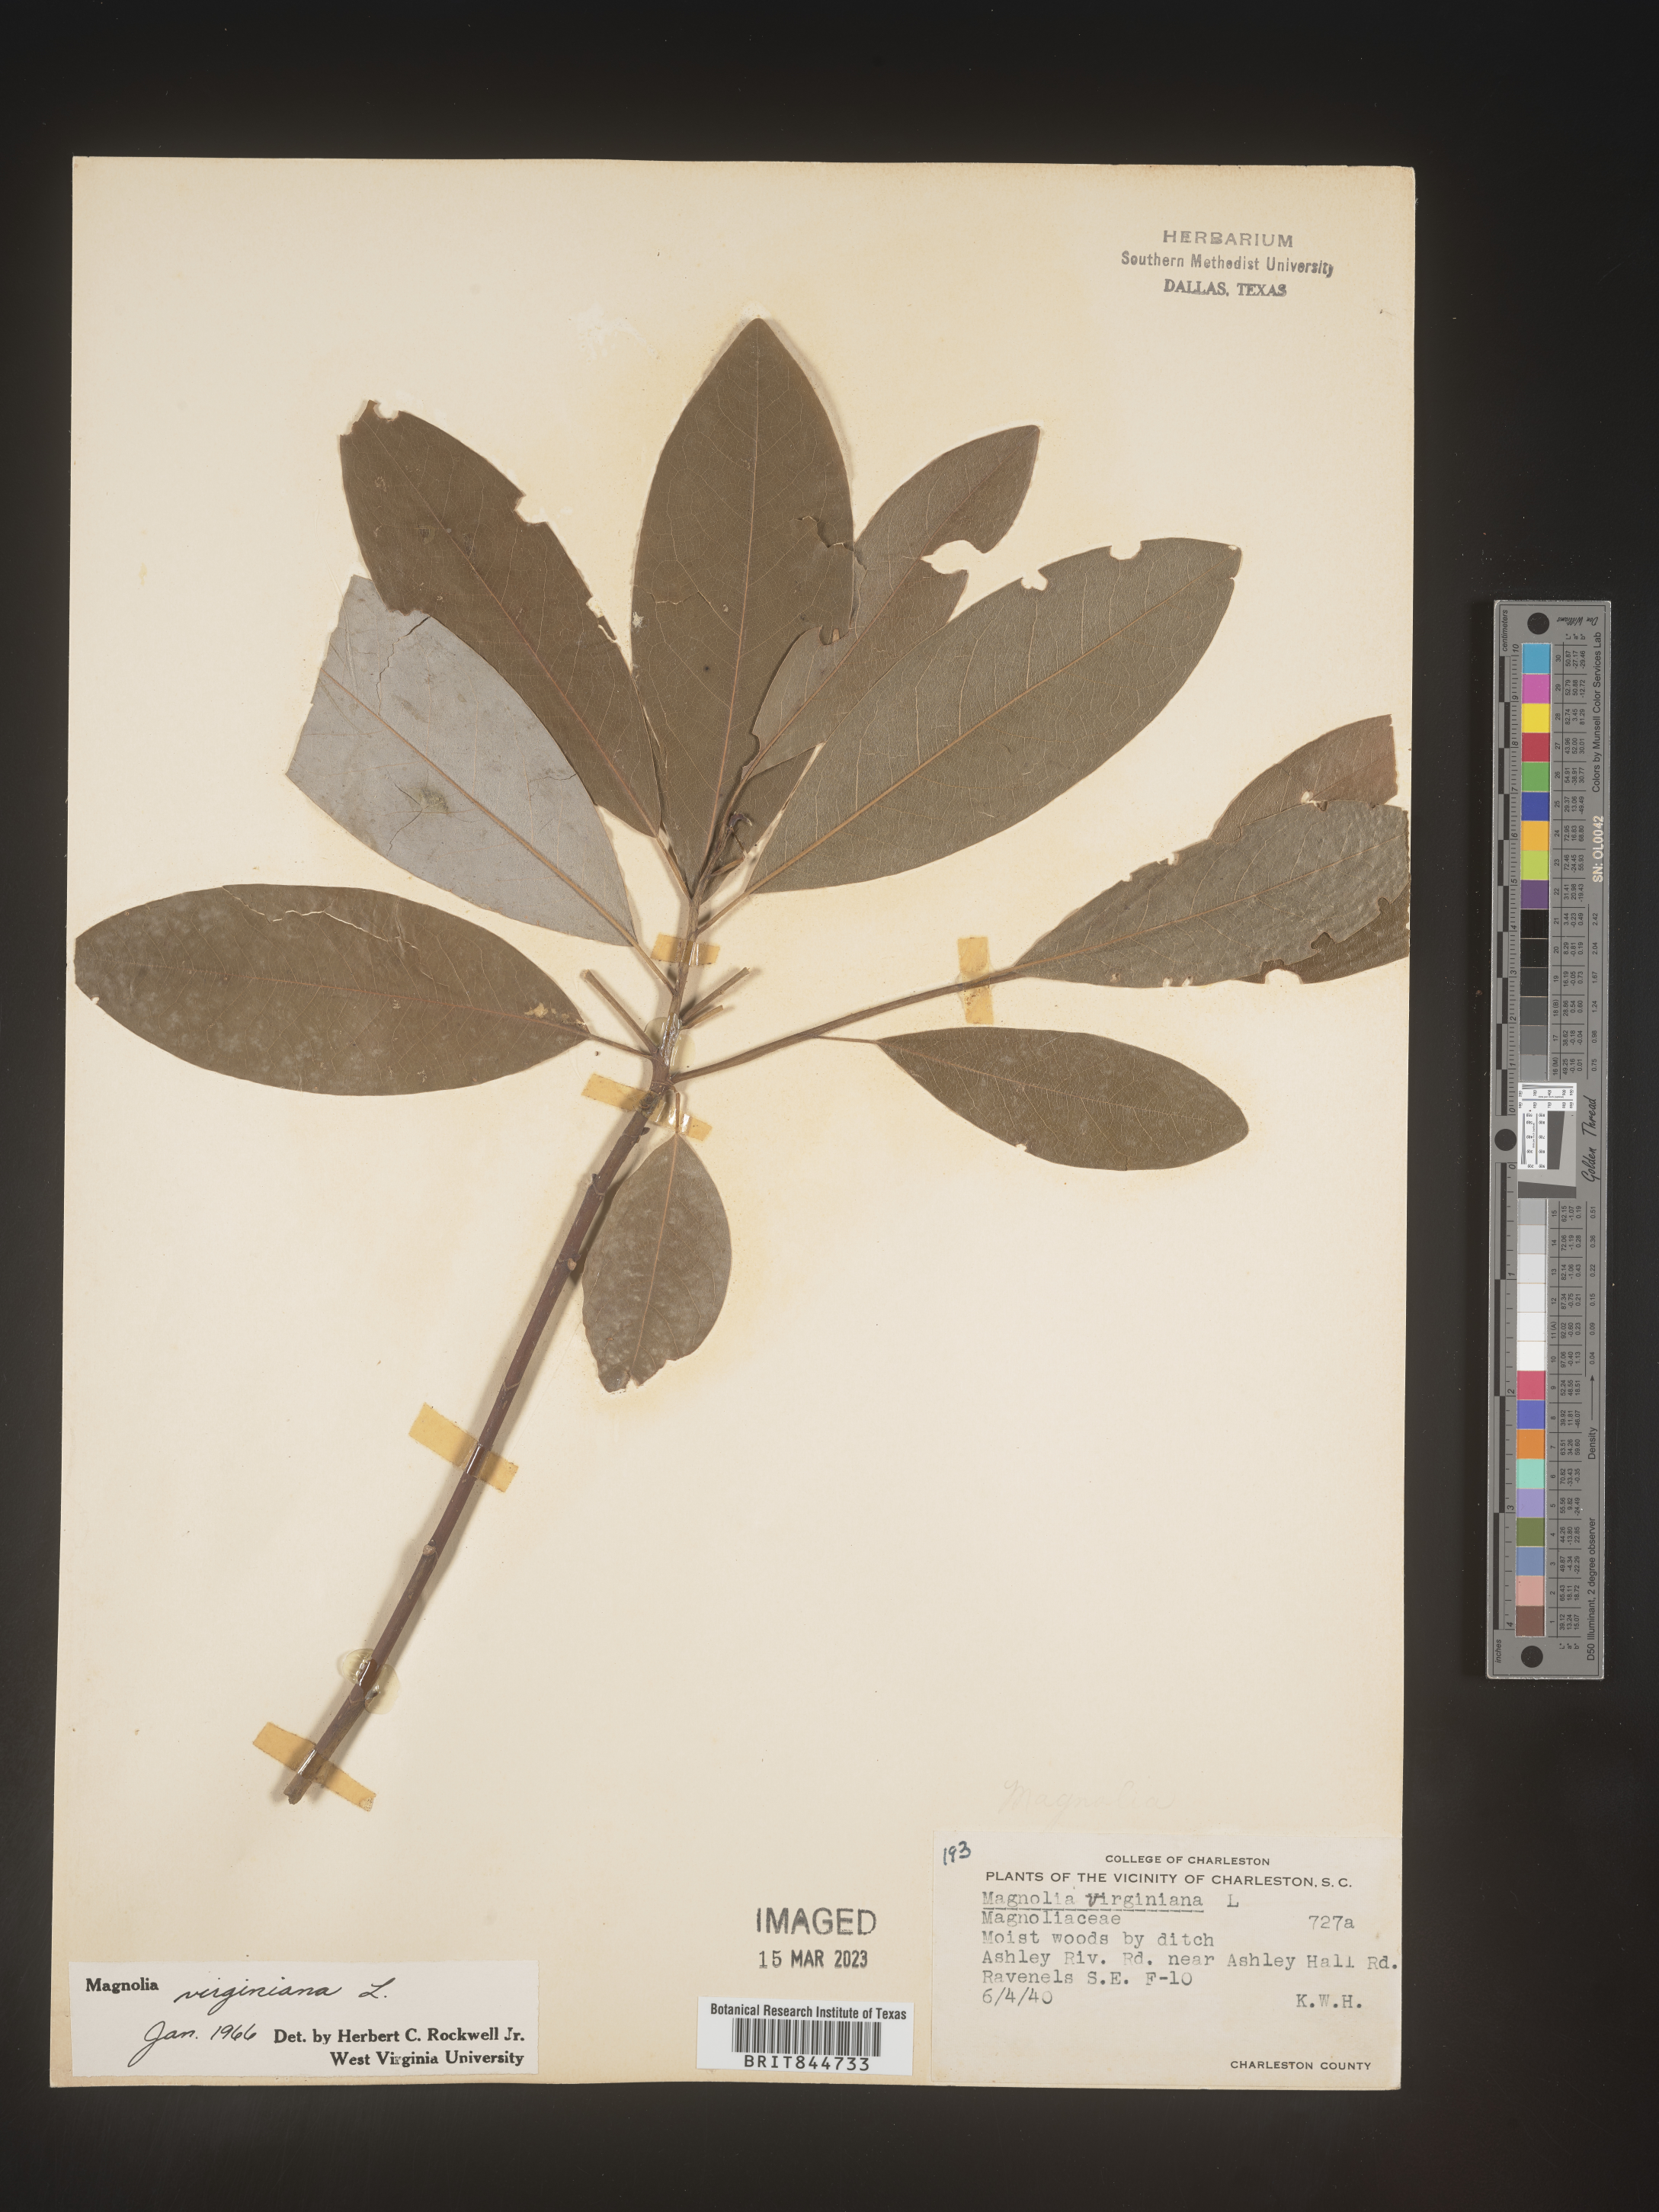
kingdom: Plantae
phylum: Tracheophyta
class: Magnoliopsida
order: Magnoliales
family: Magnoliaceae
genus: Magnolia
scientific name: Magnolia virginiana
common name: Swamp bay
